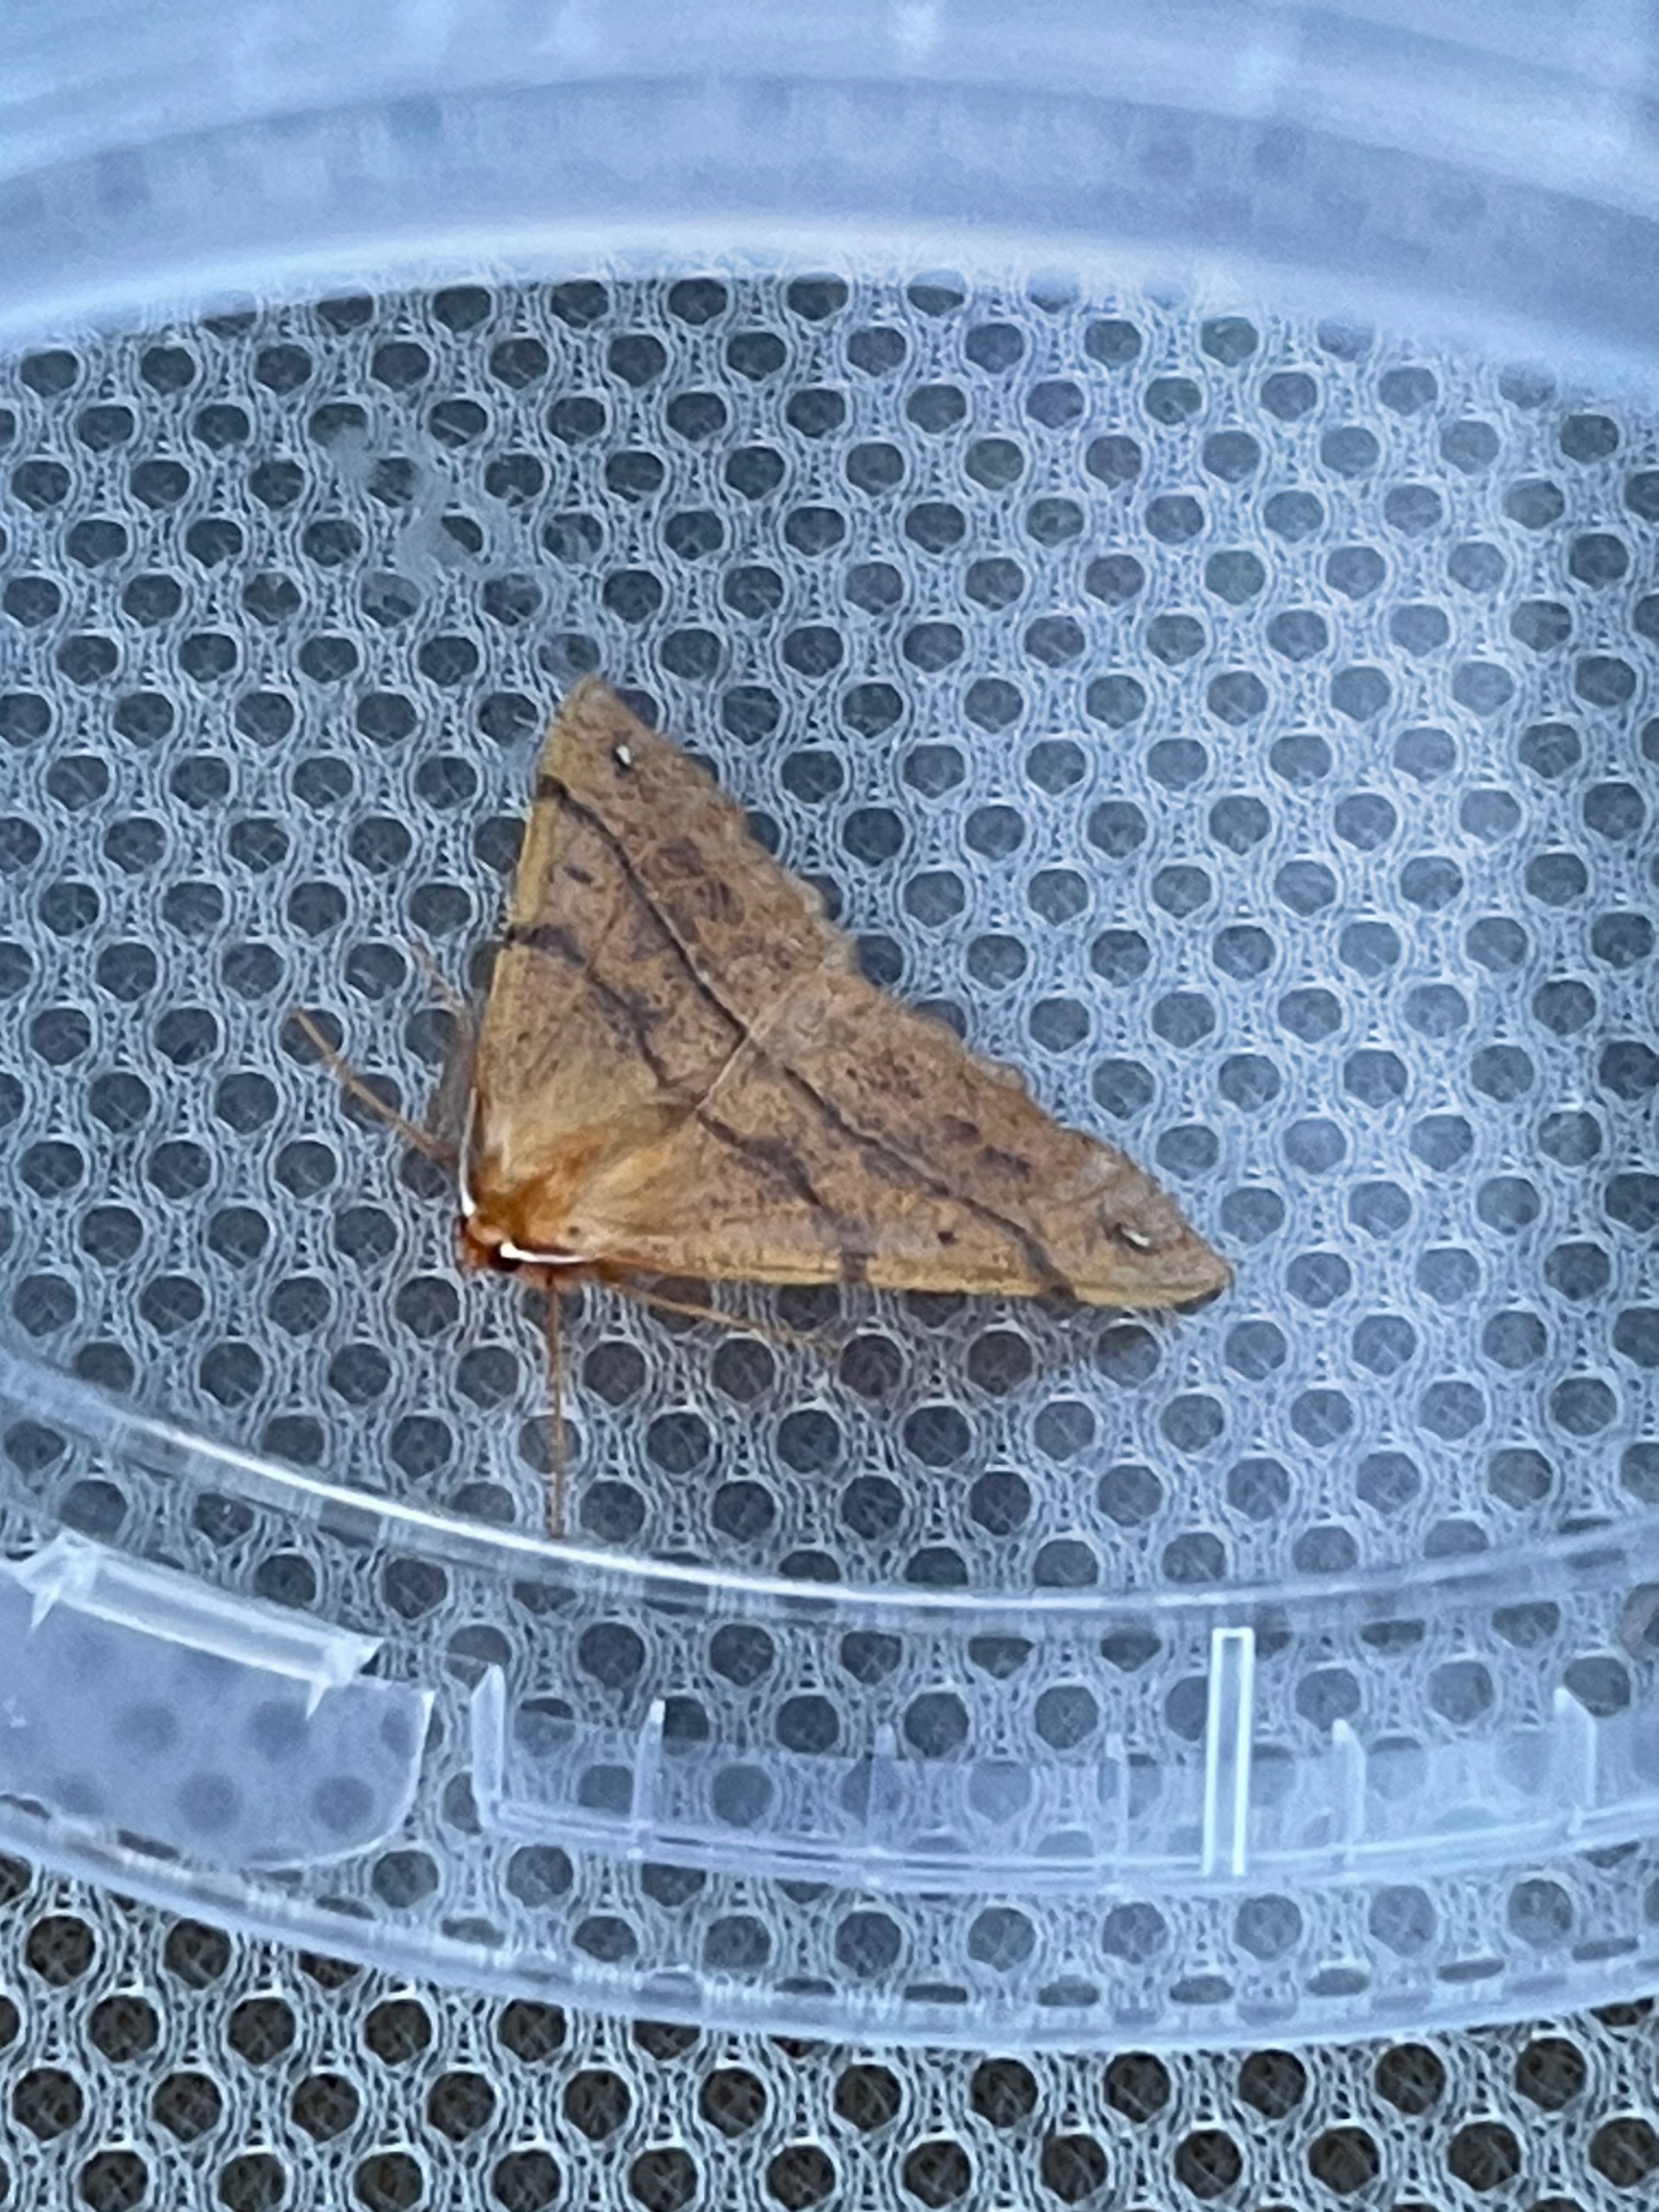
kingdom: Animalia
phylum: Arthropoda
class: Insecta
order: Lepidoptera
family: Geometridae
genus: Colotois
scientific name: Colotois pennaria
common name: Løvfaldsmåler
